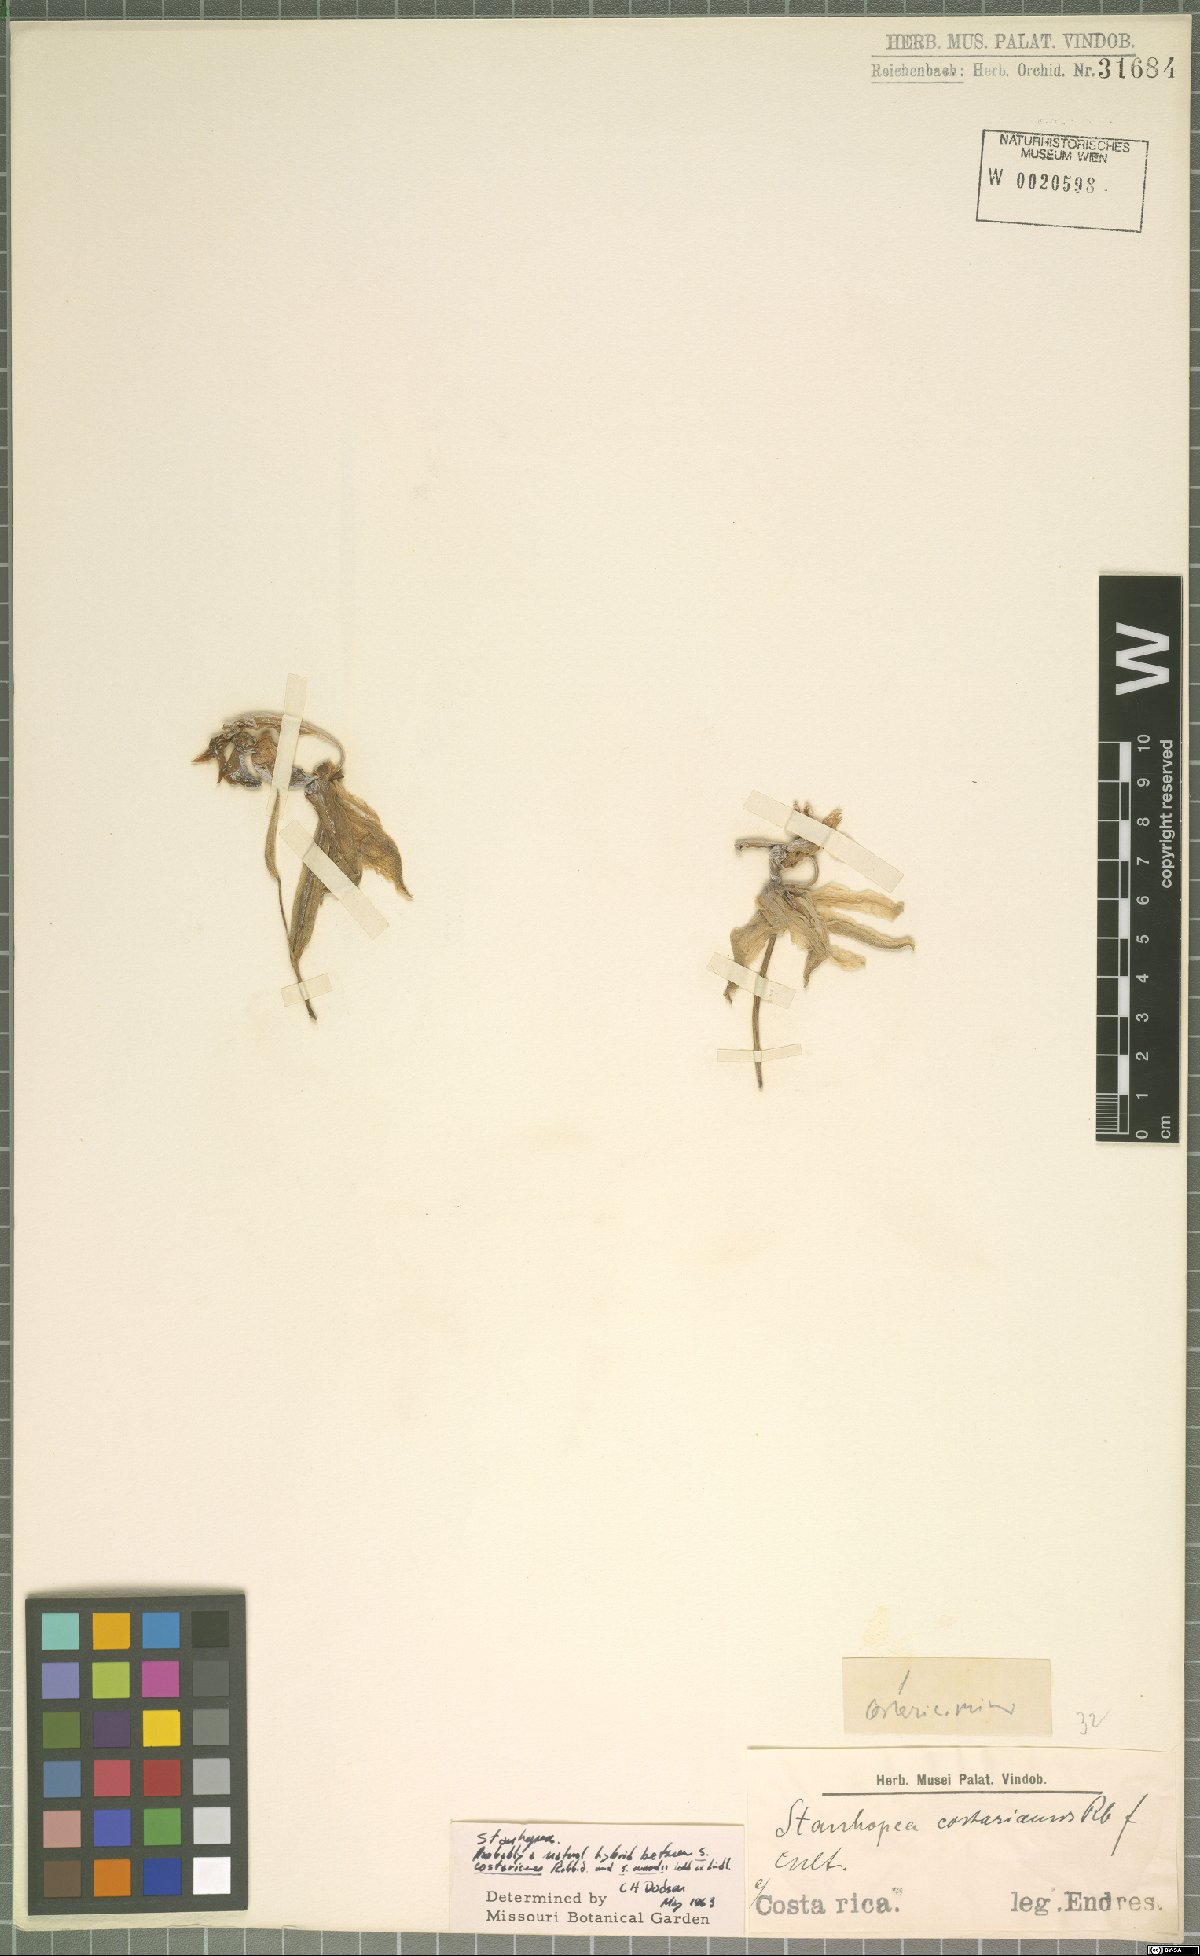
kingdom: Plantae
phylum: Tracheophyta
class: Liliopsida
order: Asparagales
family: Orchidaceae
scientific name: Orchidaceae
